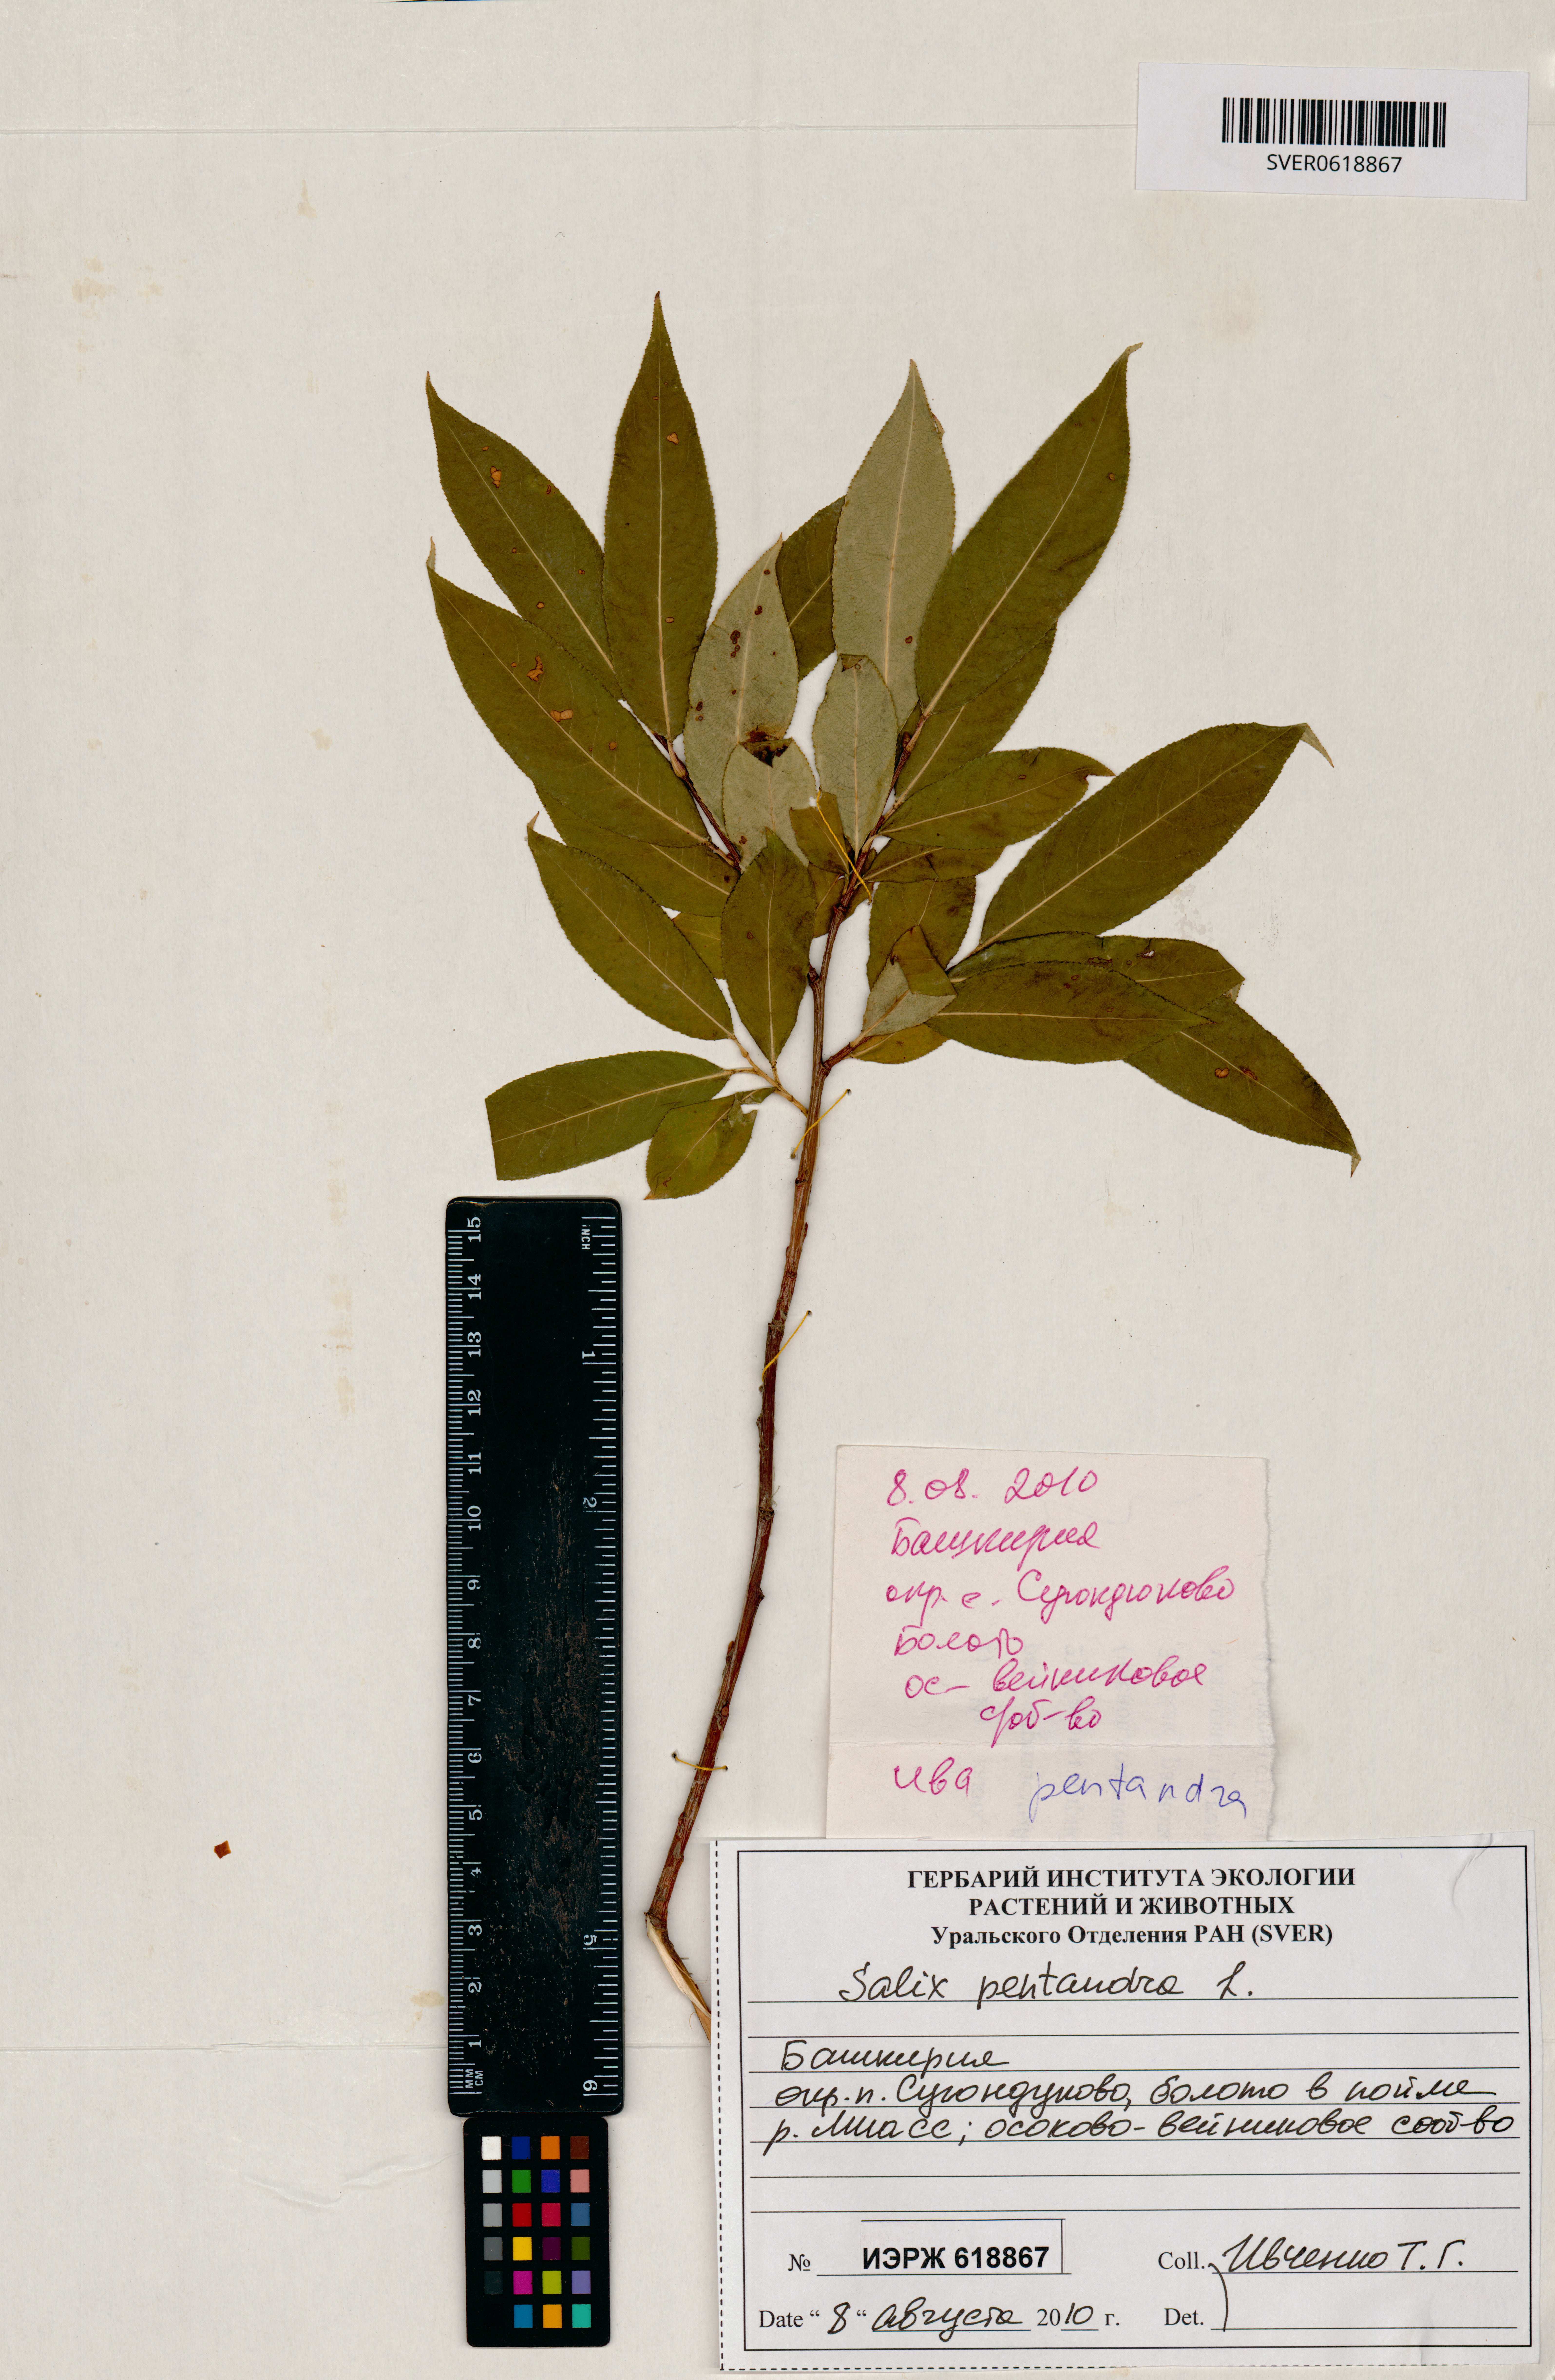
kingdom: Plantae
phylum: Tracheophyta
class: Magnoliopsida
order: Malpighiales
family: Salicaceae
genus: Salix
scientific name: Salix pentandra
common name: Bay willow
